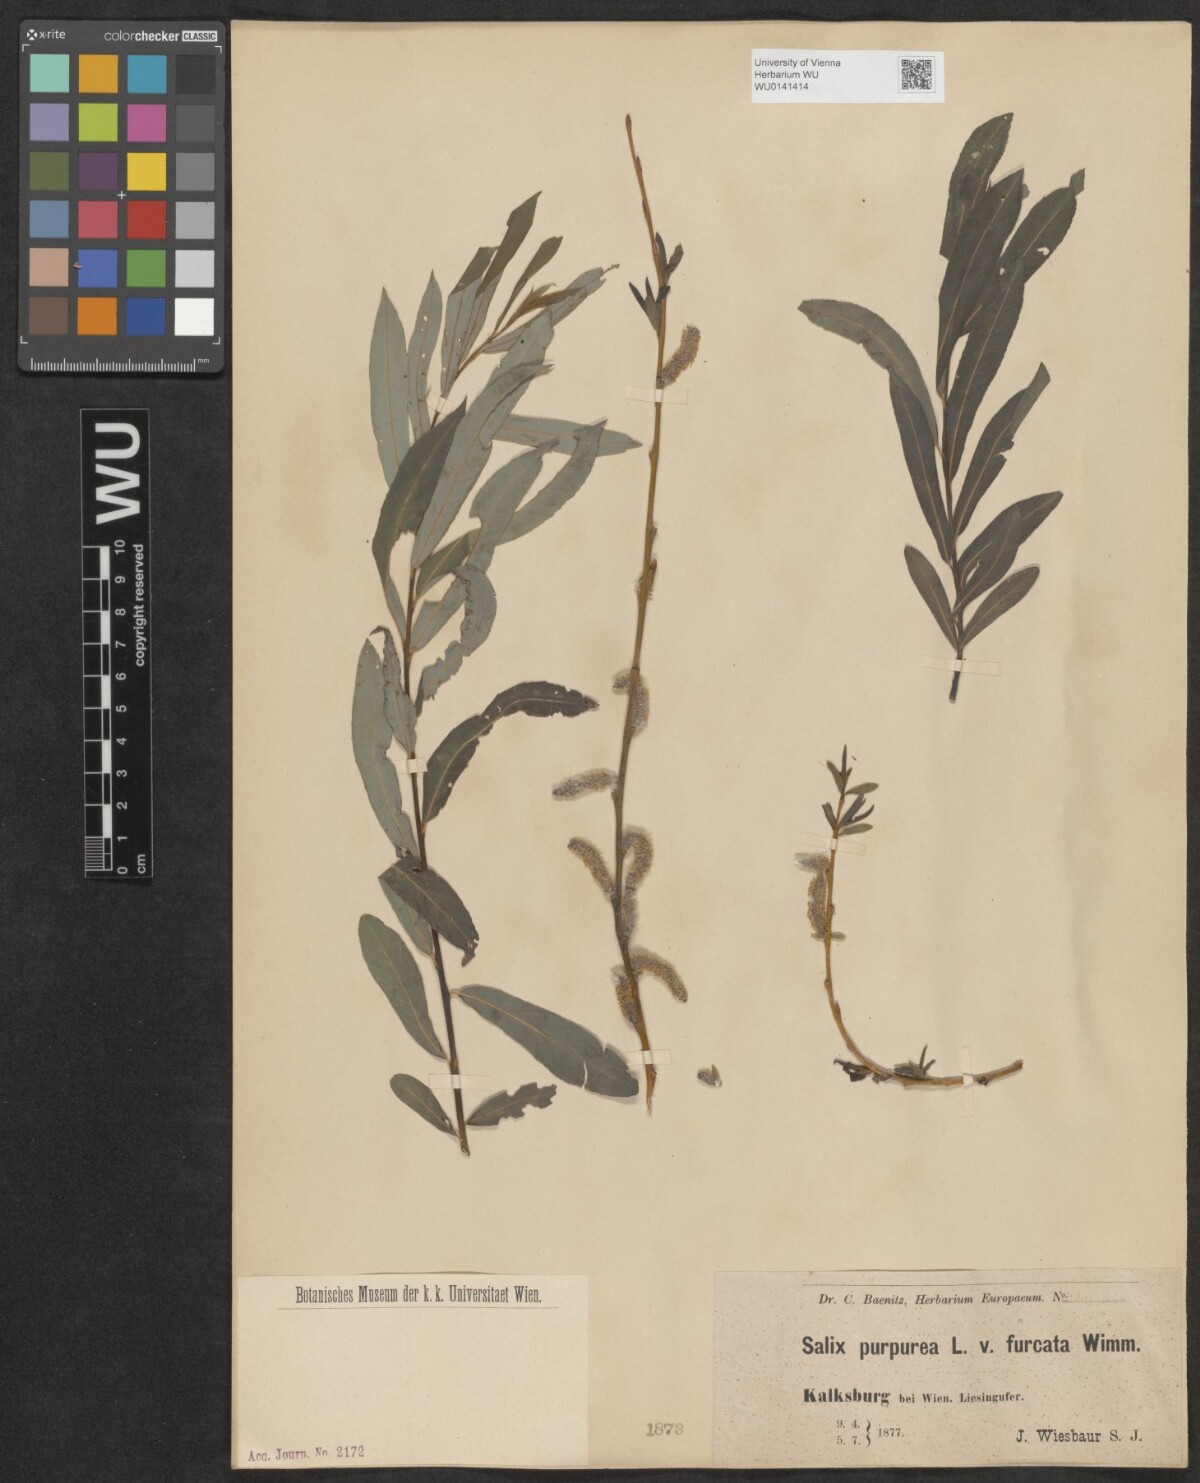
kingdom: Plantae
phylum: Tracheophyta
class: Magnoliopsida
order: Malpighiales
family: Salicaceae
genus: Salix
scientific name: Salix purpurea
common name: Purple willow
